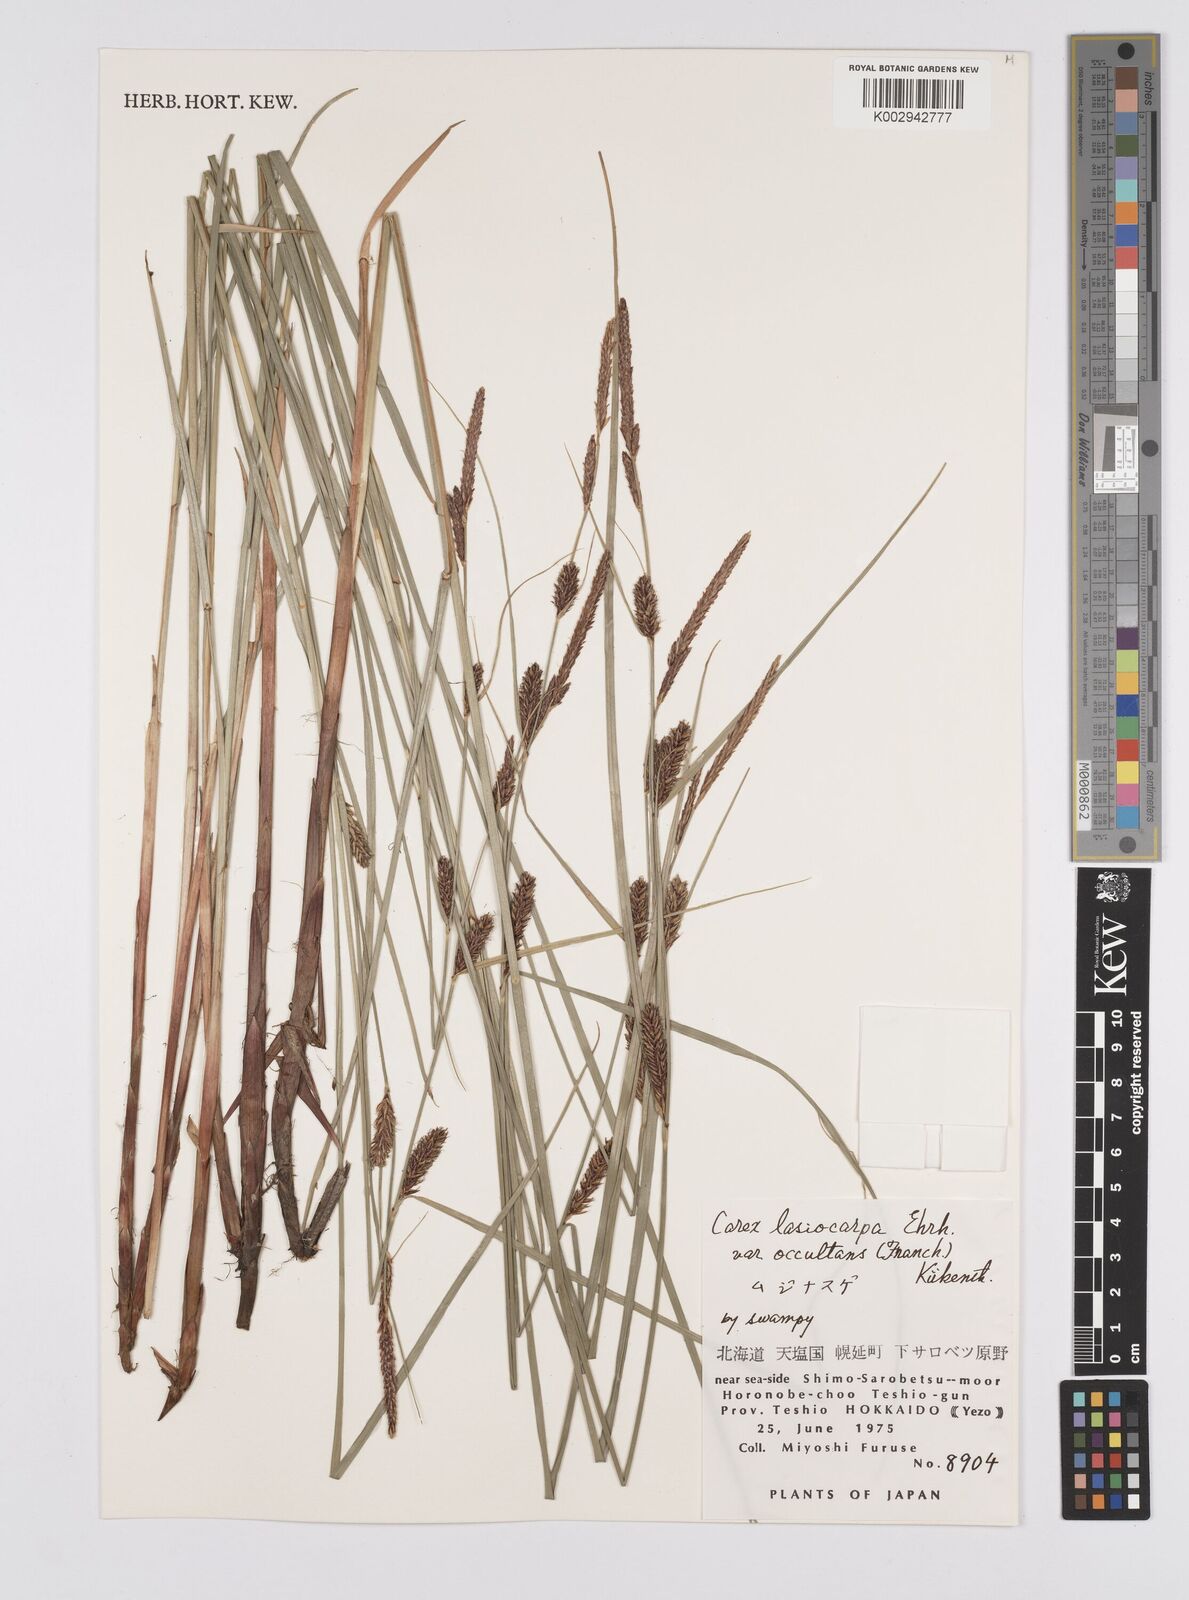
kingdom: Plantae
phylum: Tracheophyta
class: Liliopsida
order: Poales
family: Cyperaceae
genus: Carex
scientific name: Carex lasiocarpa
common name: Slender sedge
